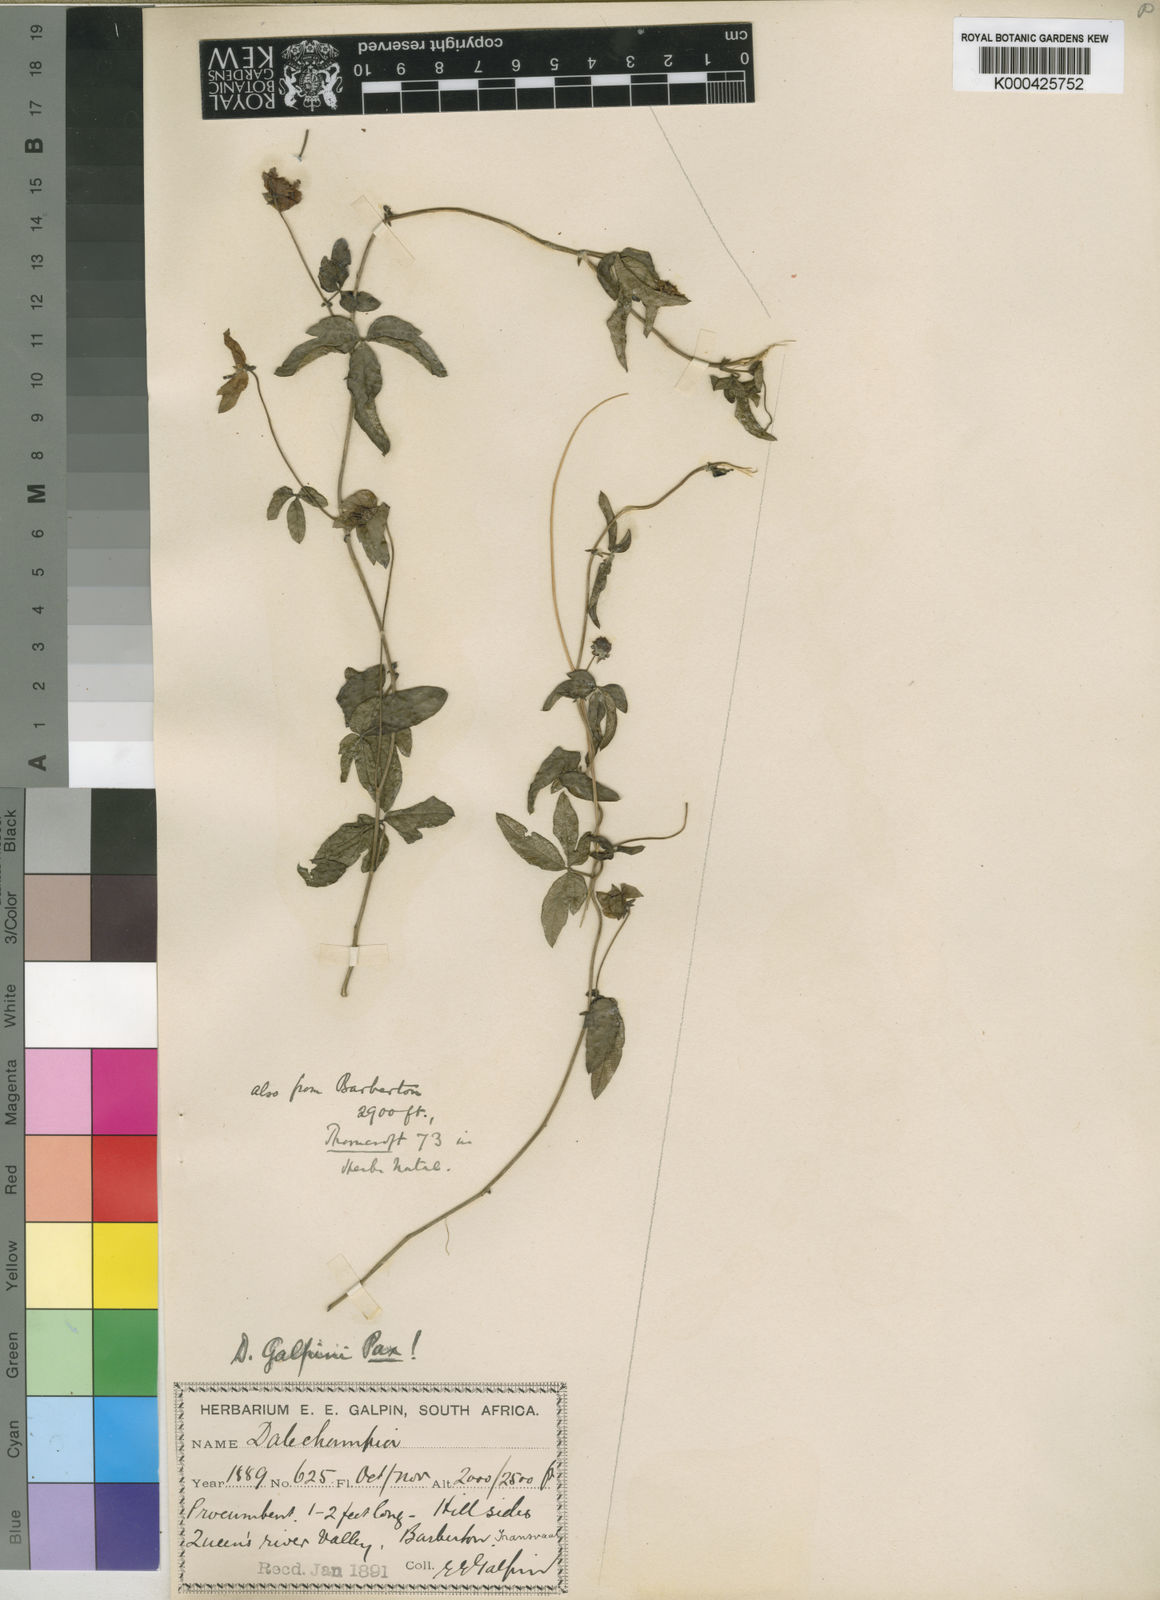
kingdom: Plantae
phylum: Tracheophyta
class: Magnoliopsida
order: Malpighiales
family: Euphorbiaceae
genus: Dalechampia
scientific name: Dalechampia galpinii
